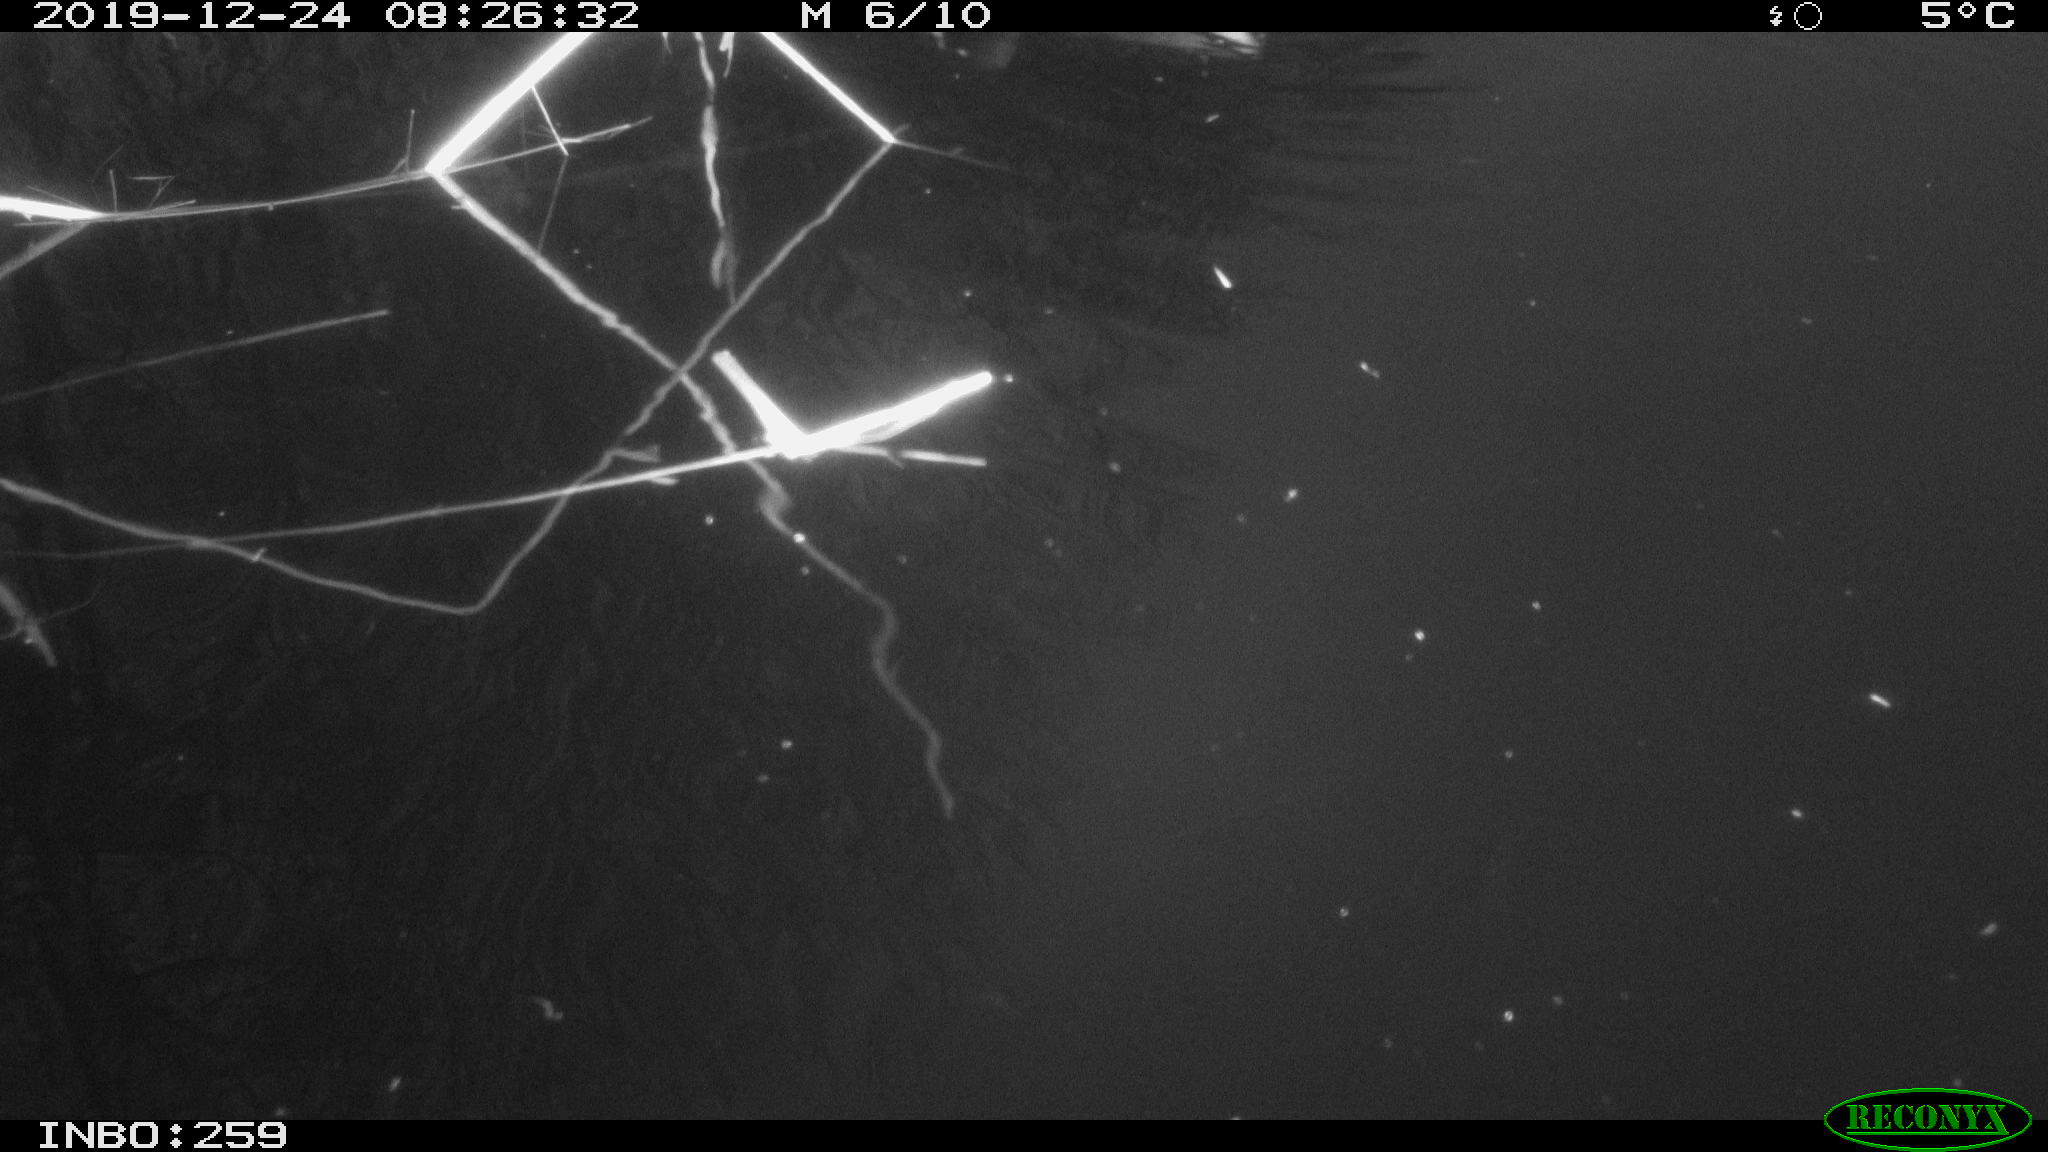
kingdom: Animalia
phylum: Chordata
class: Aves
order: Gruiformes
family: Rallidae
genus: Gallinula
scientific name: Gallinula chloropus
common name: Common moorhen
